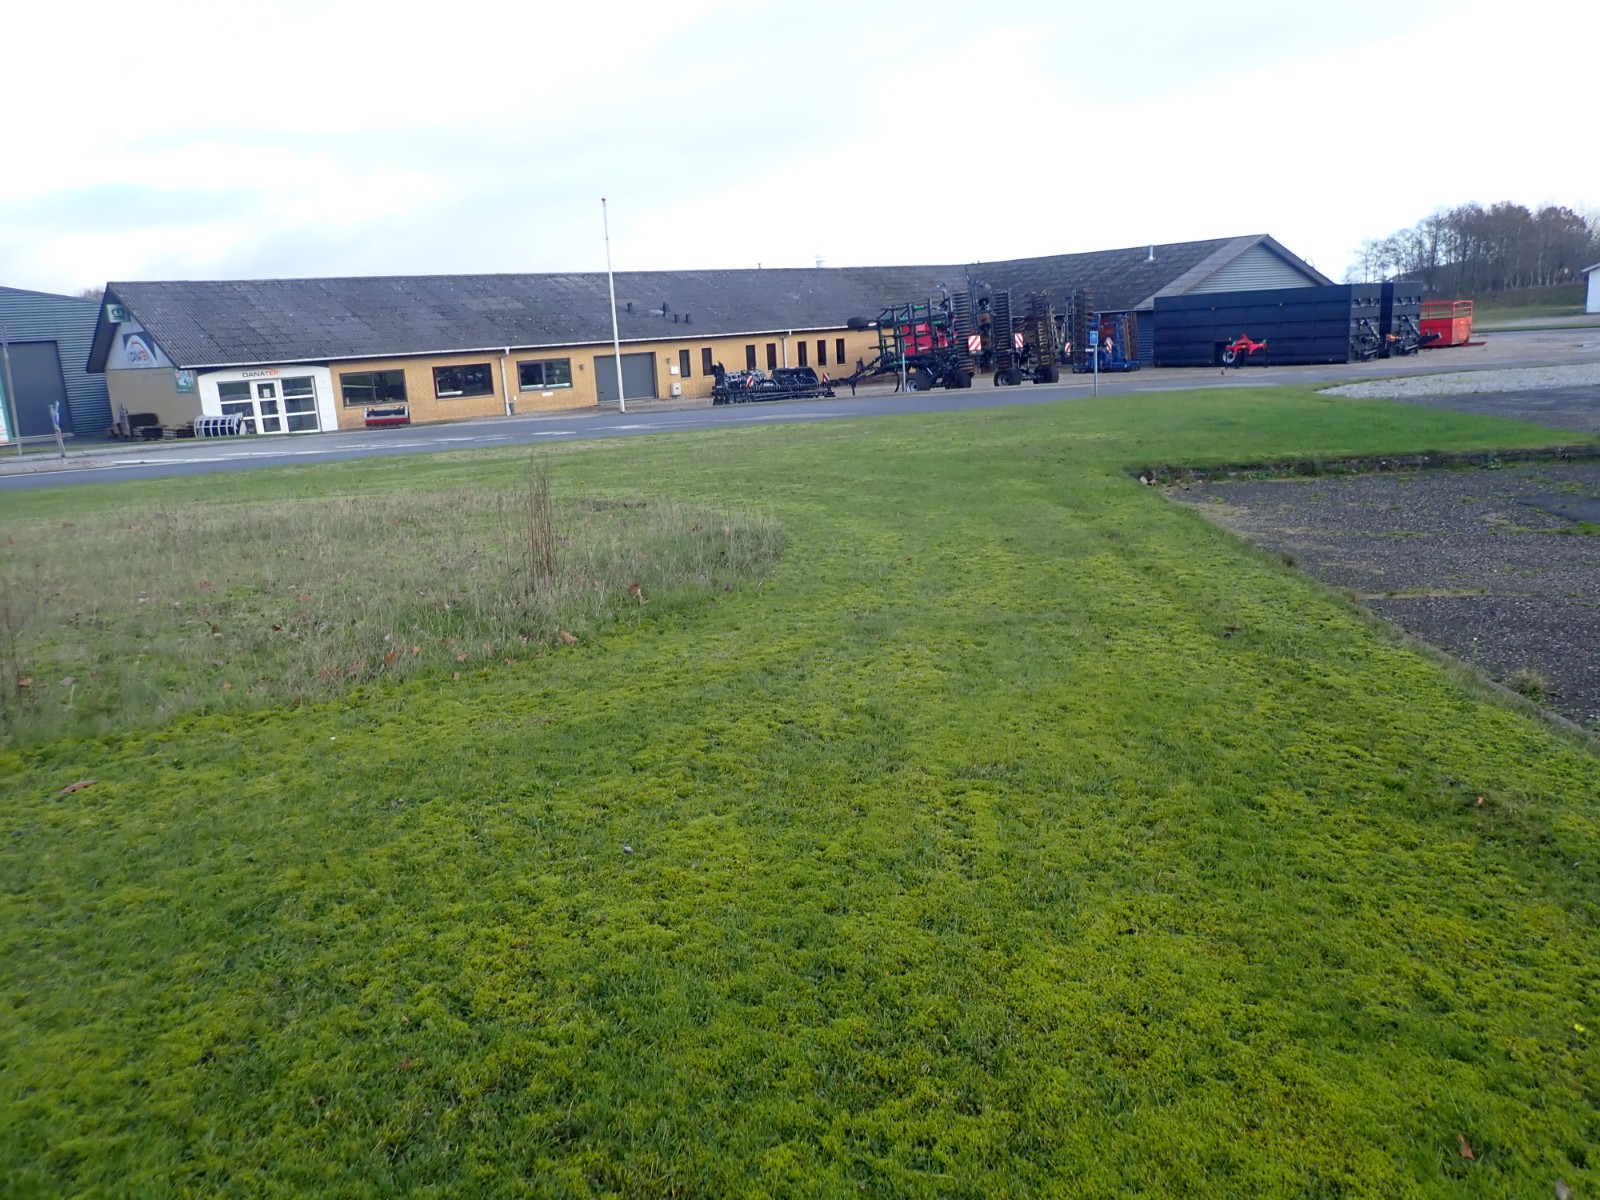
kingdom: Fungi
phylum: Basidiomycota
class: Agaricomycetes
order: Agaricales
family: Hygrophoraceae
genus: Hygrocybe
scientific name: Hygrocybe phaeococcinea
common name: sortdugget vokshat
